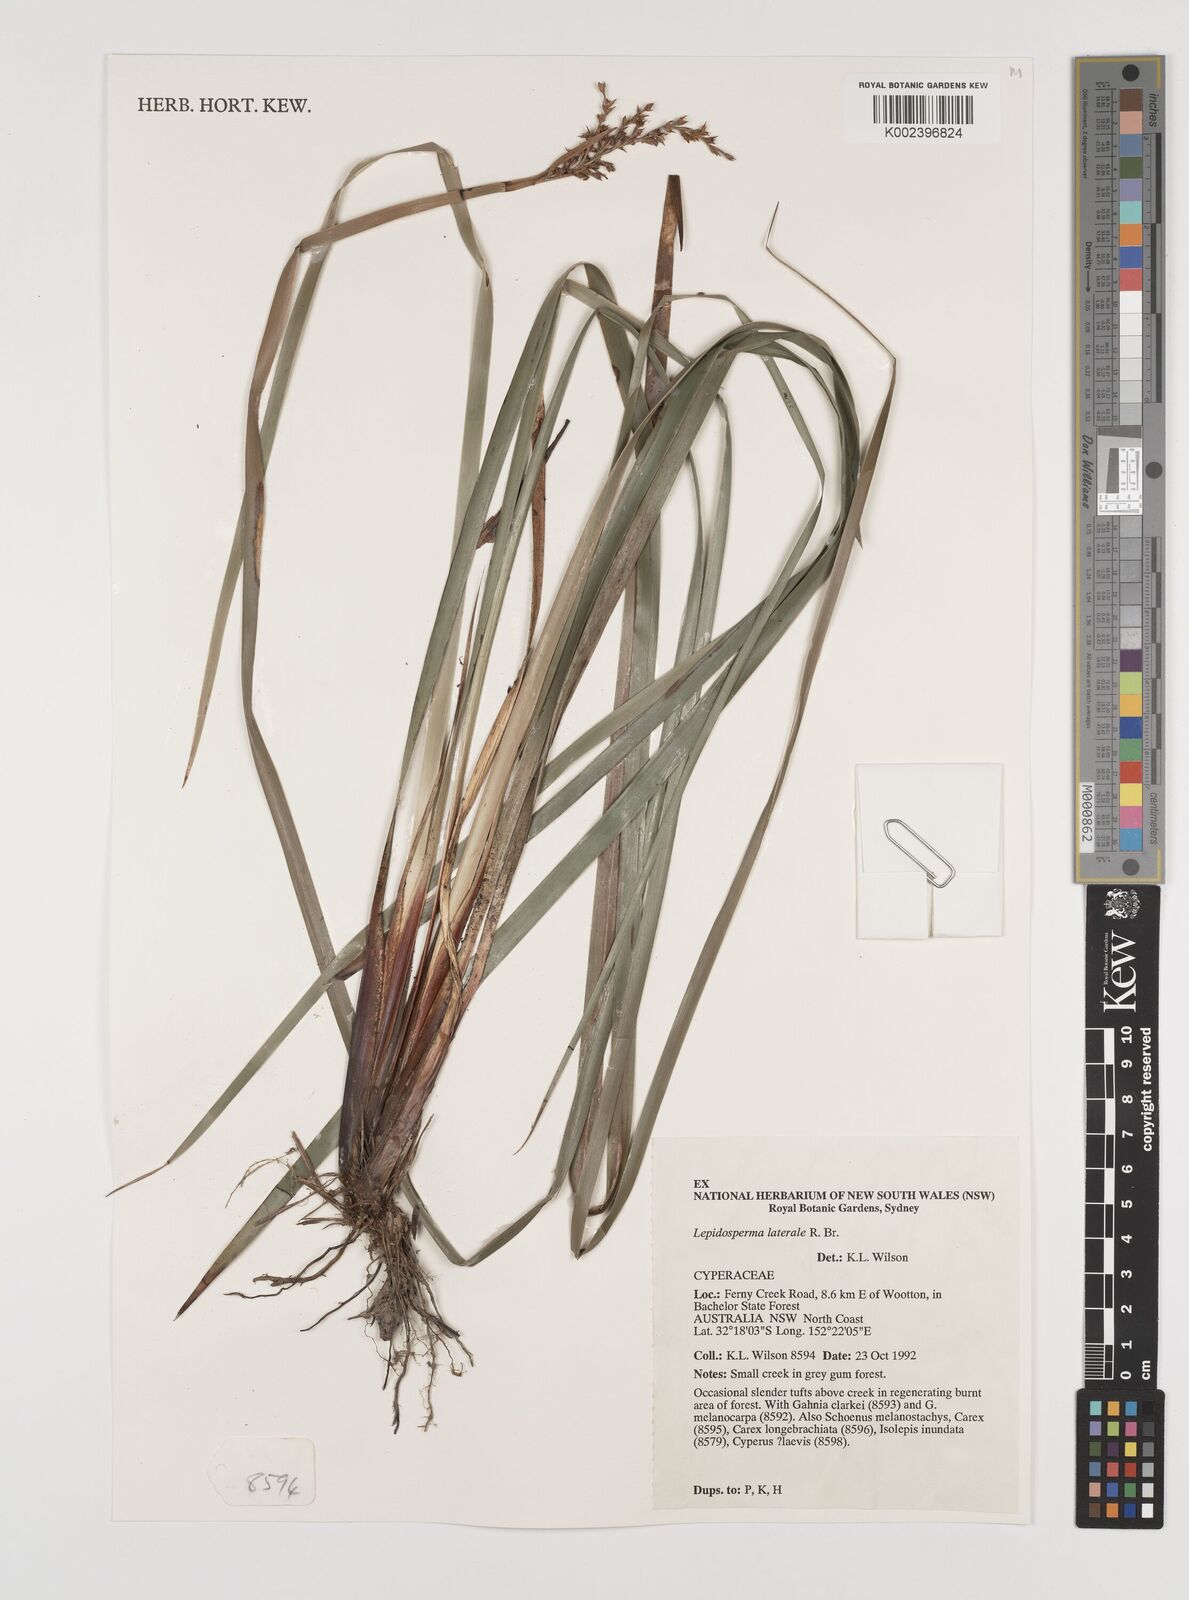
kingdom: Plantae
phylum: Tracheophyta
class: Liliopsida
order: Poales
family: Cyperaceae
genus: Lepidosperma
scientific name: Lepidosperma laterale
